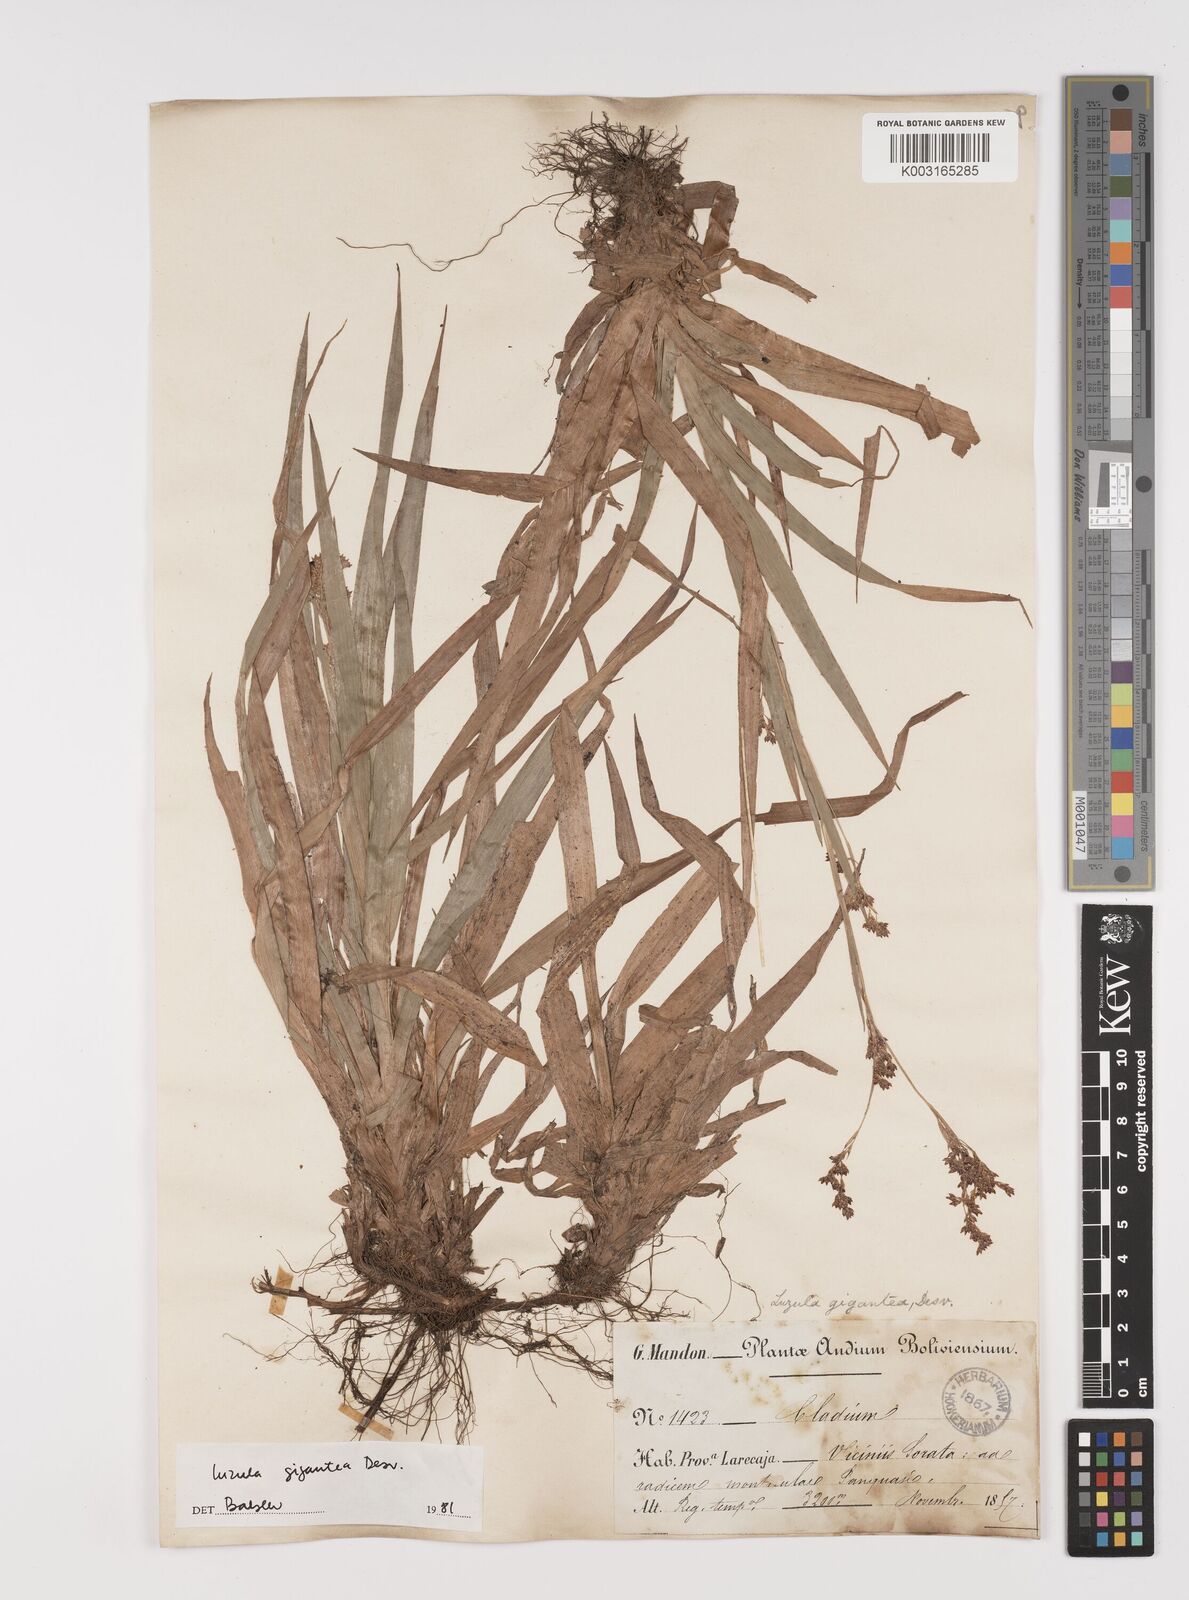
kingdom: Plantae
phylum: Tracheophyta
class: Liliopsida
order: Poales
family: Juncaceae
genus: Luzula
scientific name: Luzula gigantea
